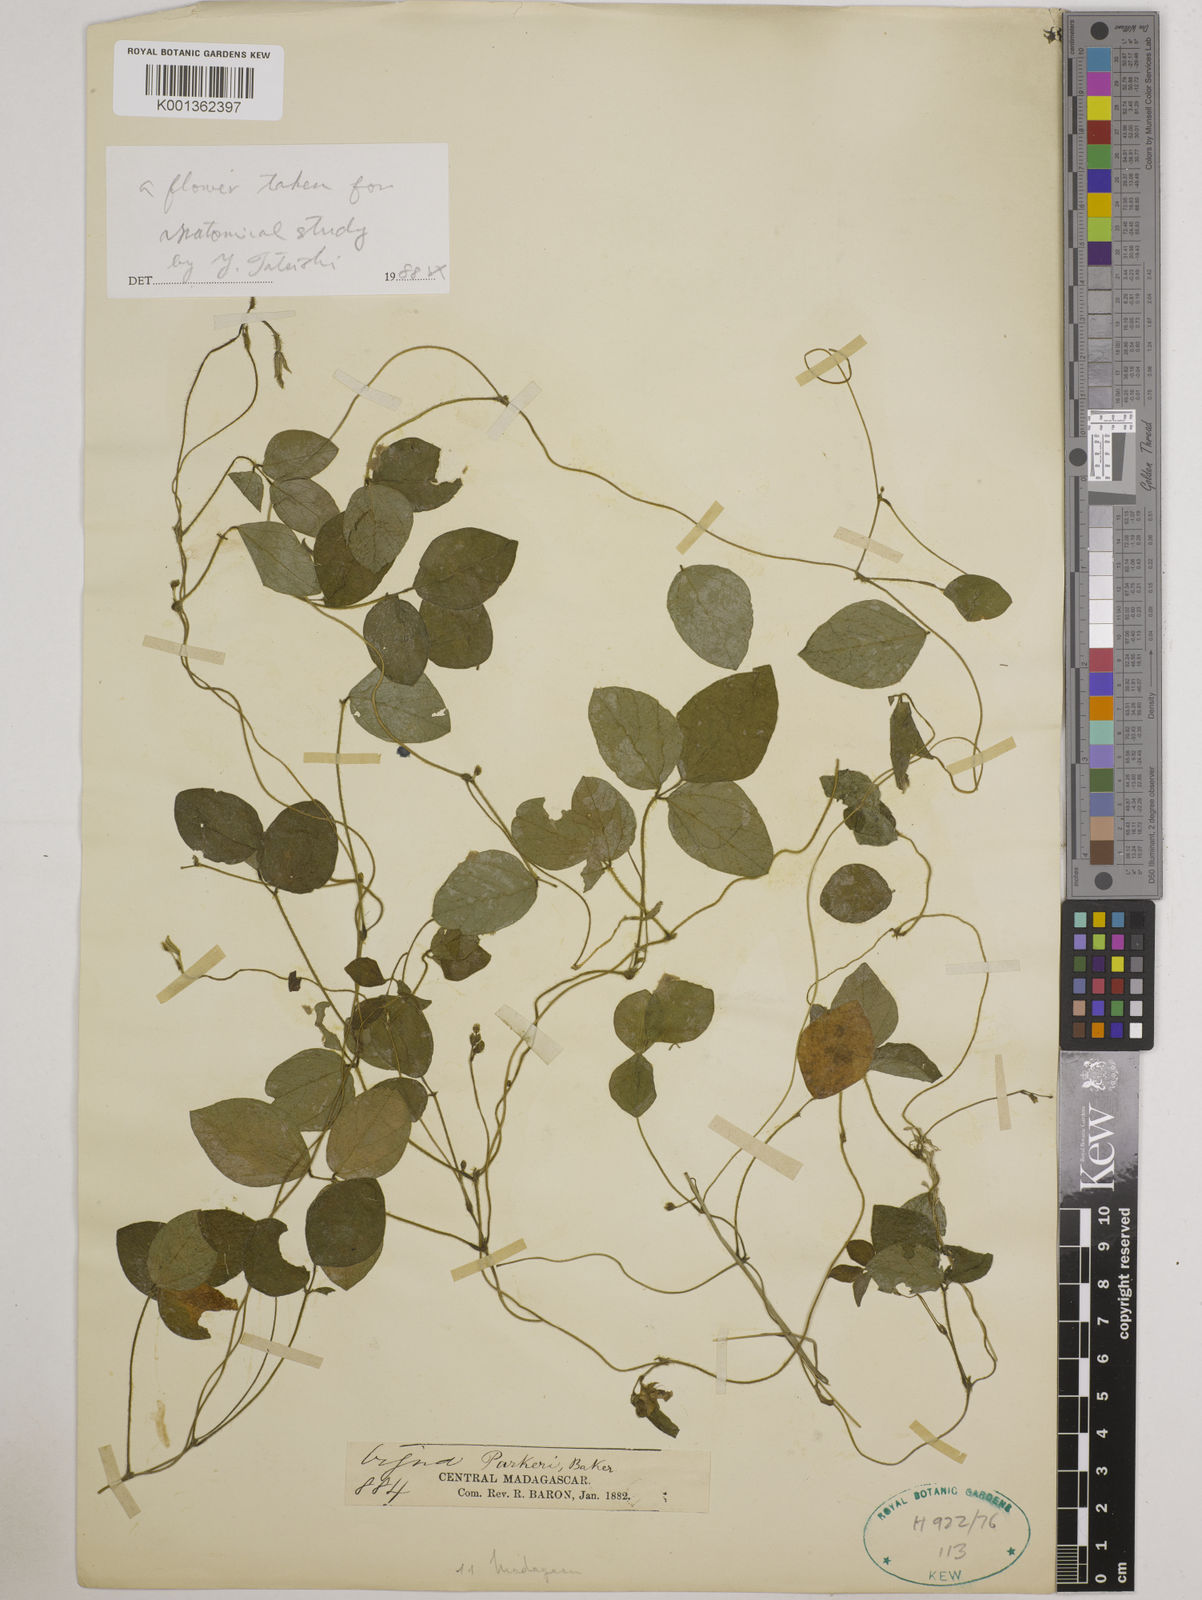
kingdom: Plantae
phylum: Tracheophyta
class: Magnoliopsida
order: Fabales
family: Fabaceae
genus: Vigna
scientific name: Vigna
